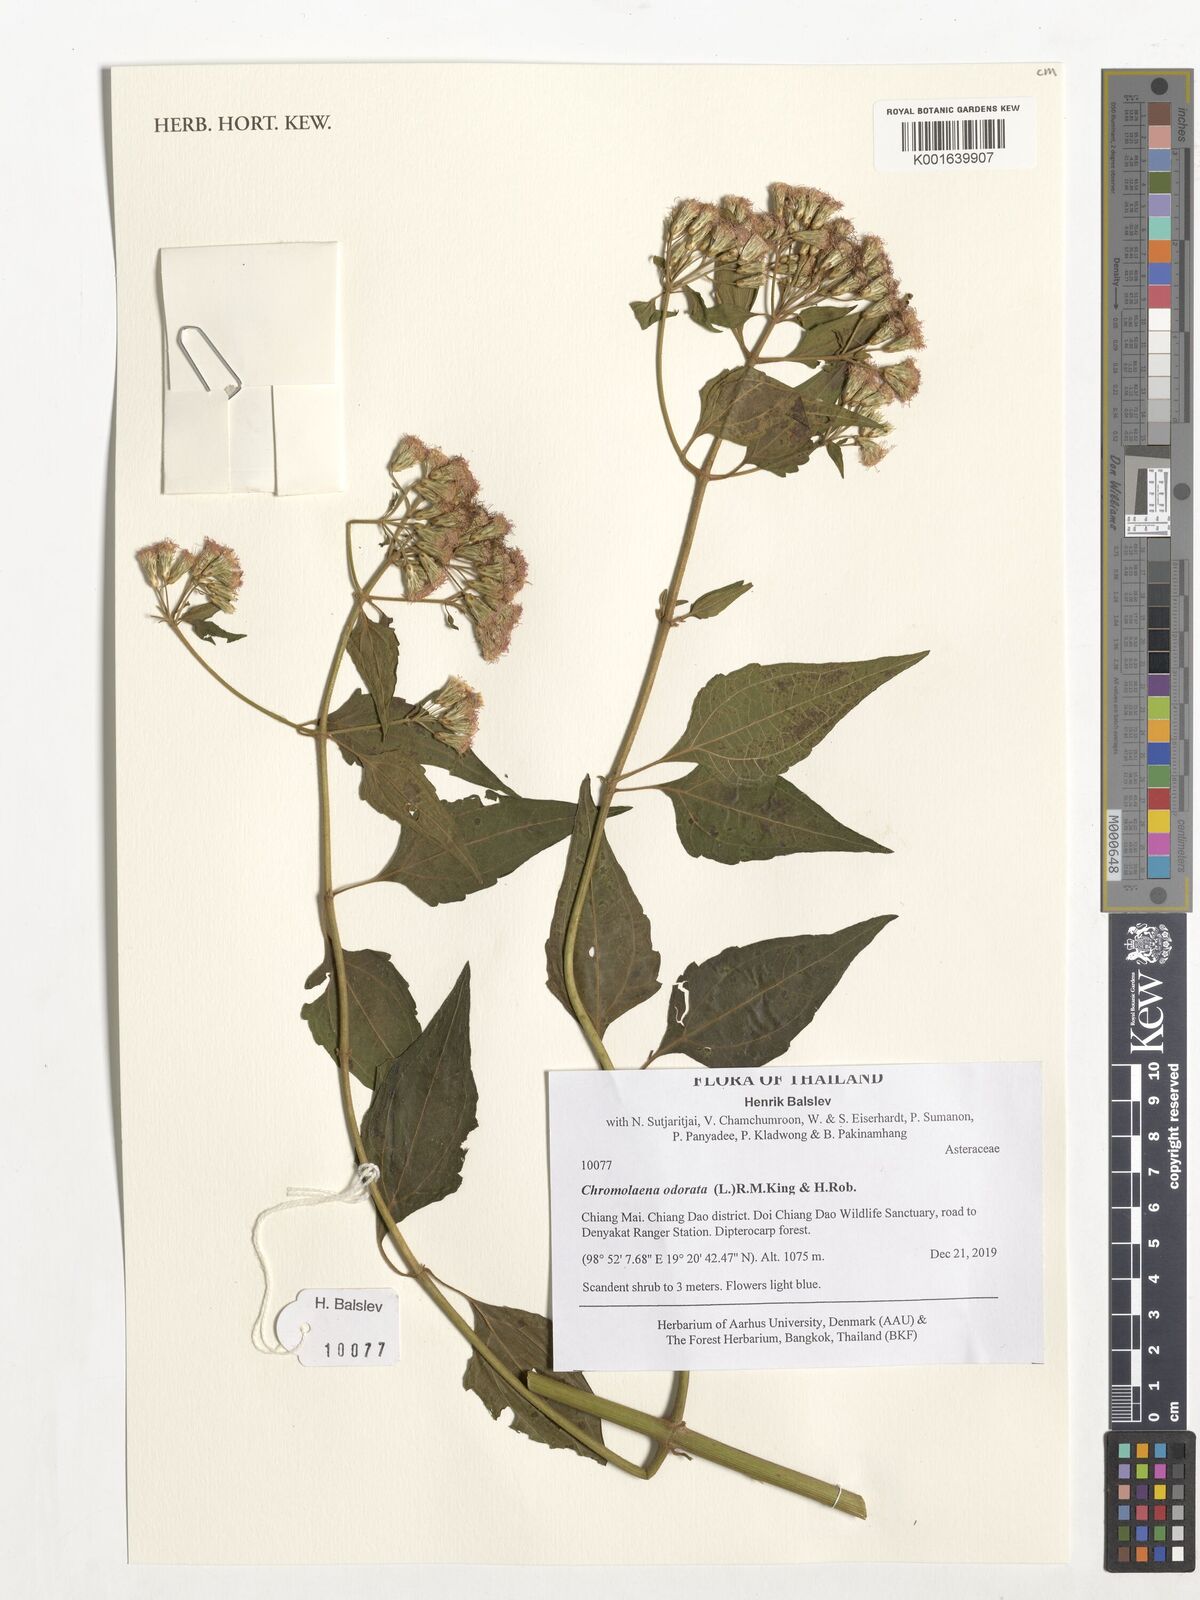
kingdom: Plantae
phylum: Tracheophyta
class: Magnoliopsida
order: Asterales
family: Asteraceae
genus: Chromolaena
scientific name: Chromolaena odorata
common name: Siamweed
